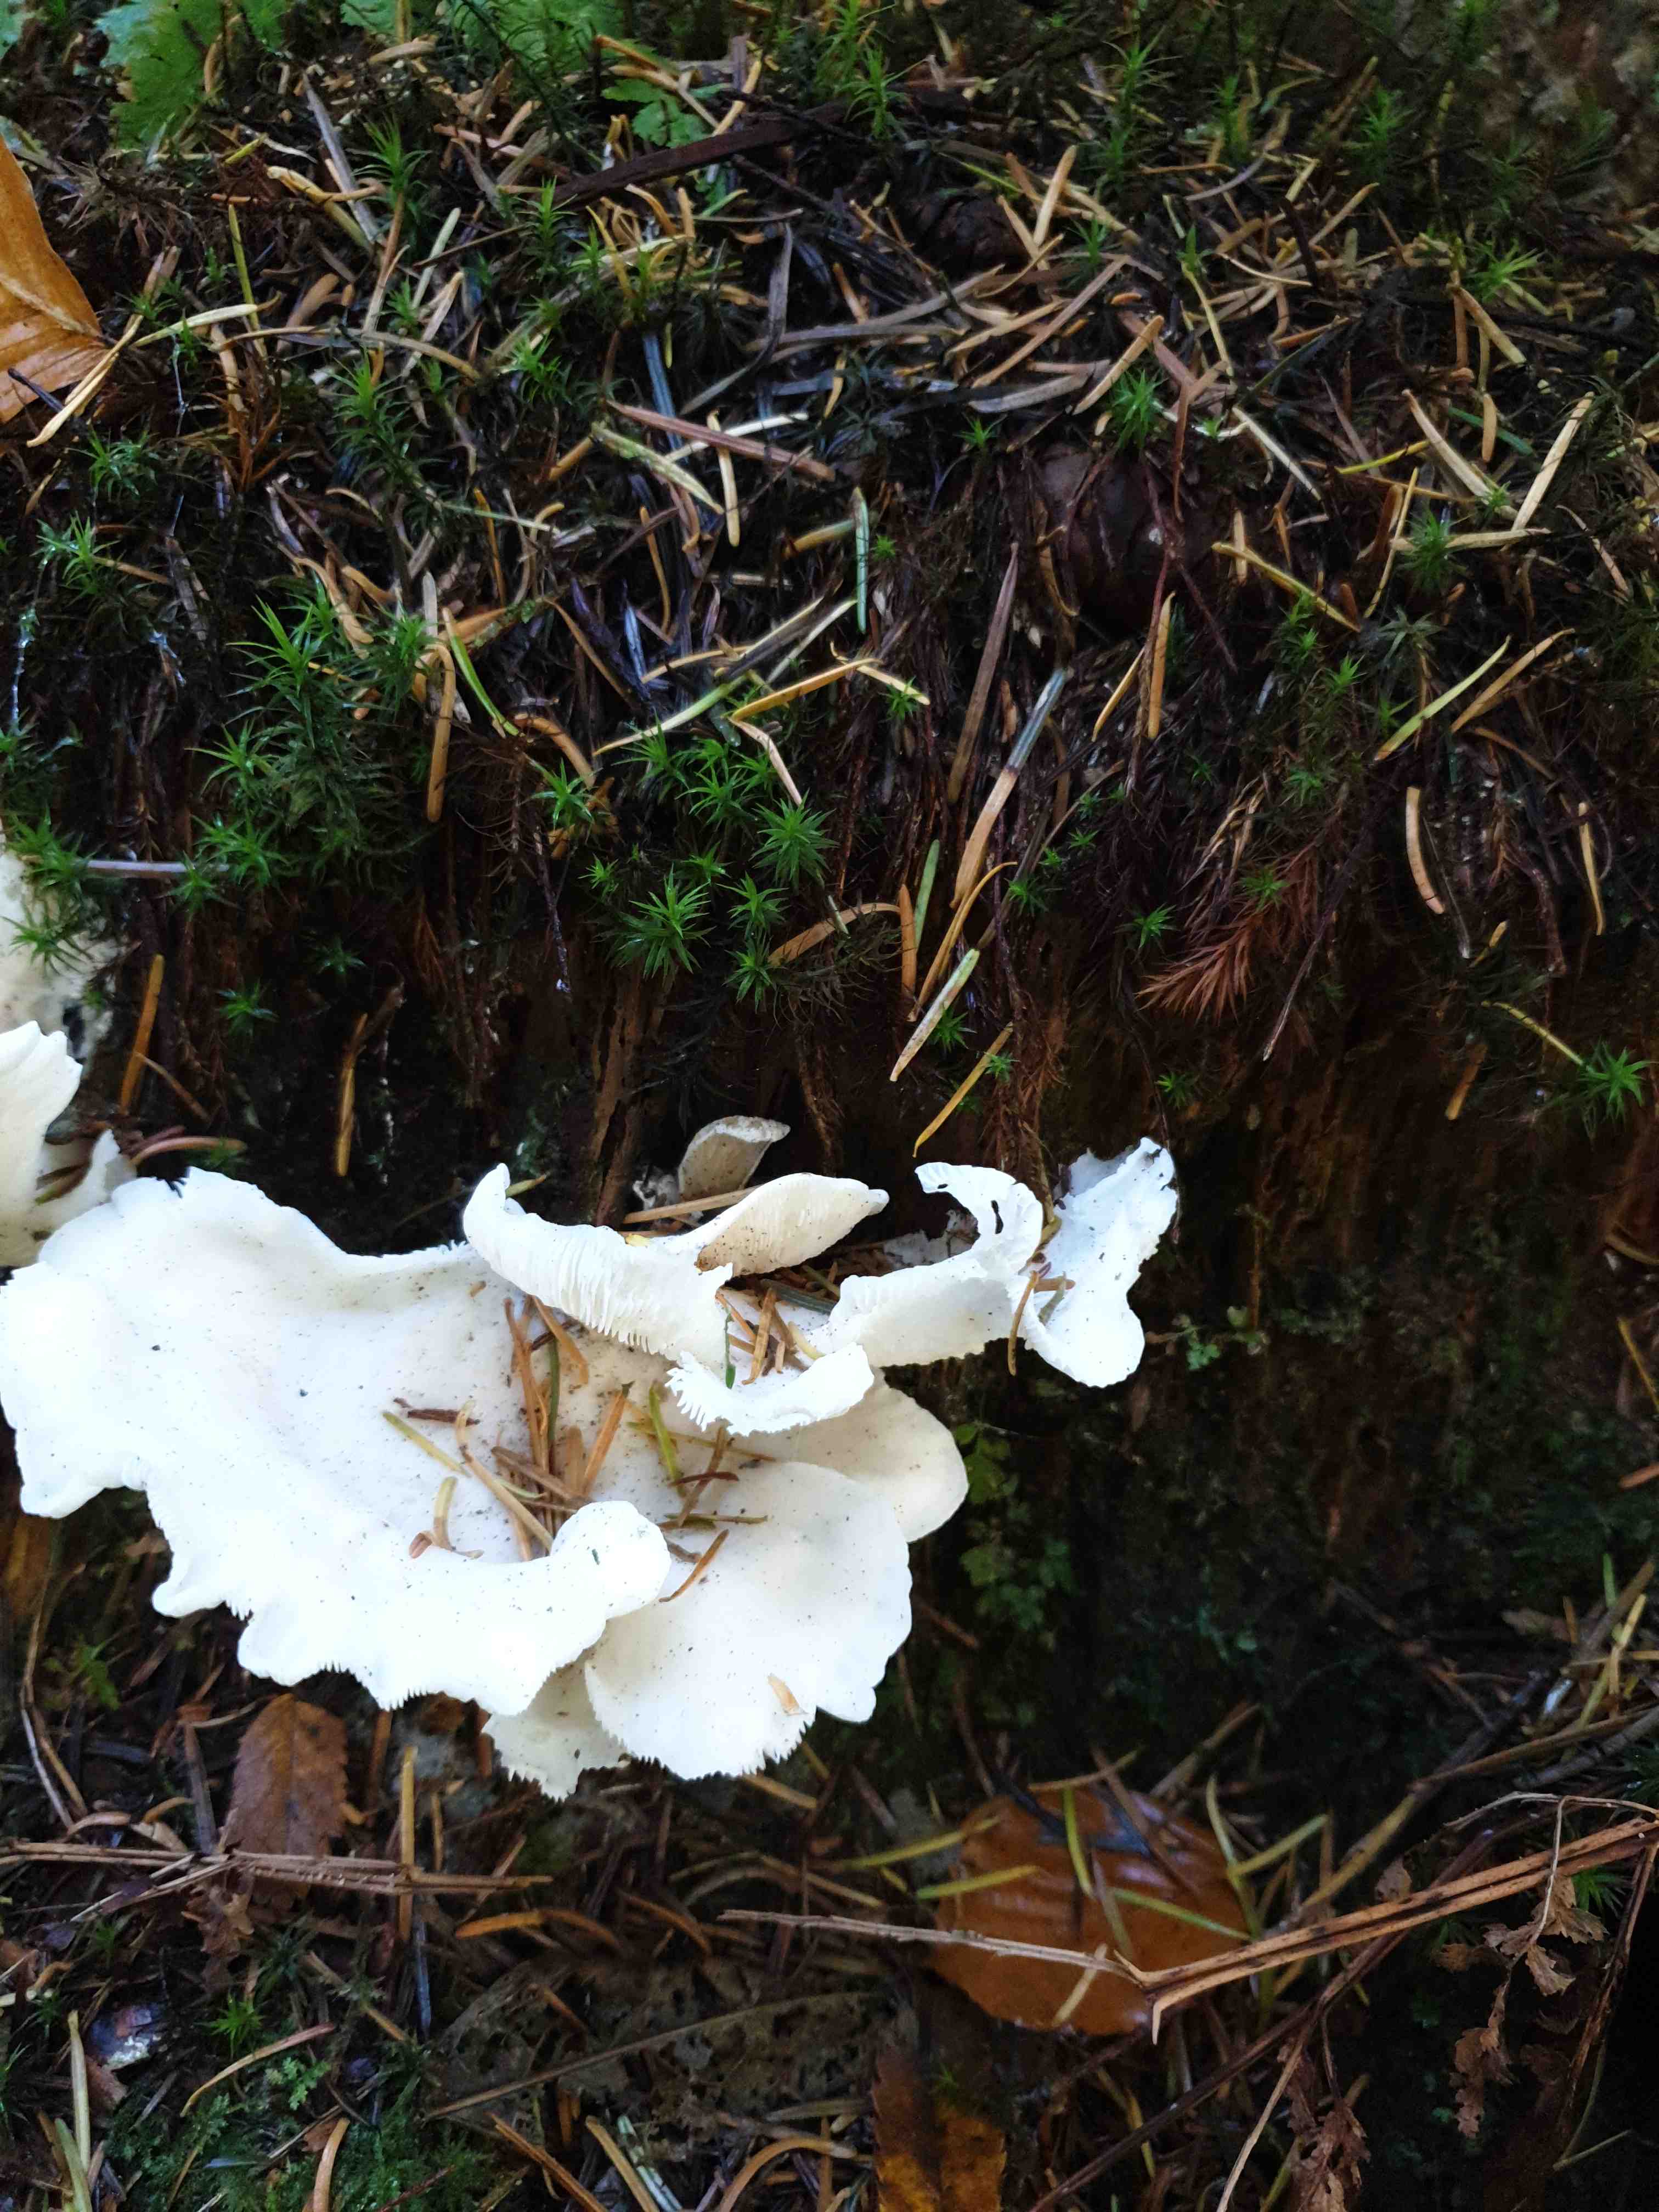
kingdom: Fungi
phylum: Basidiomycota
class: Agaricomycetes
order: Agaricales
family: Marasmiaceae
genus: Pleurocybella
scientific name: Pleurocybella porrigens
